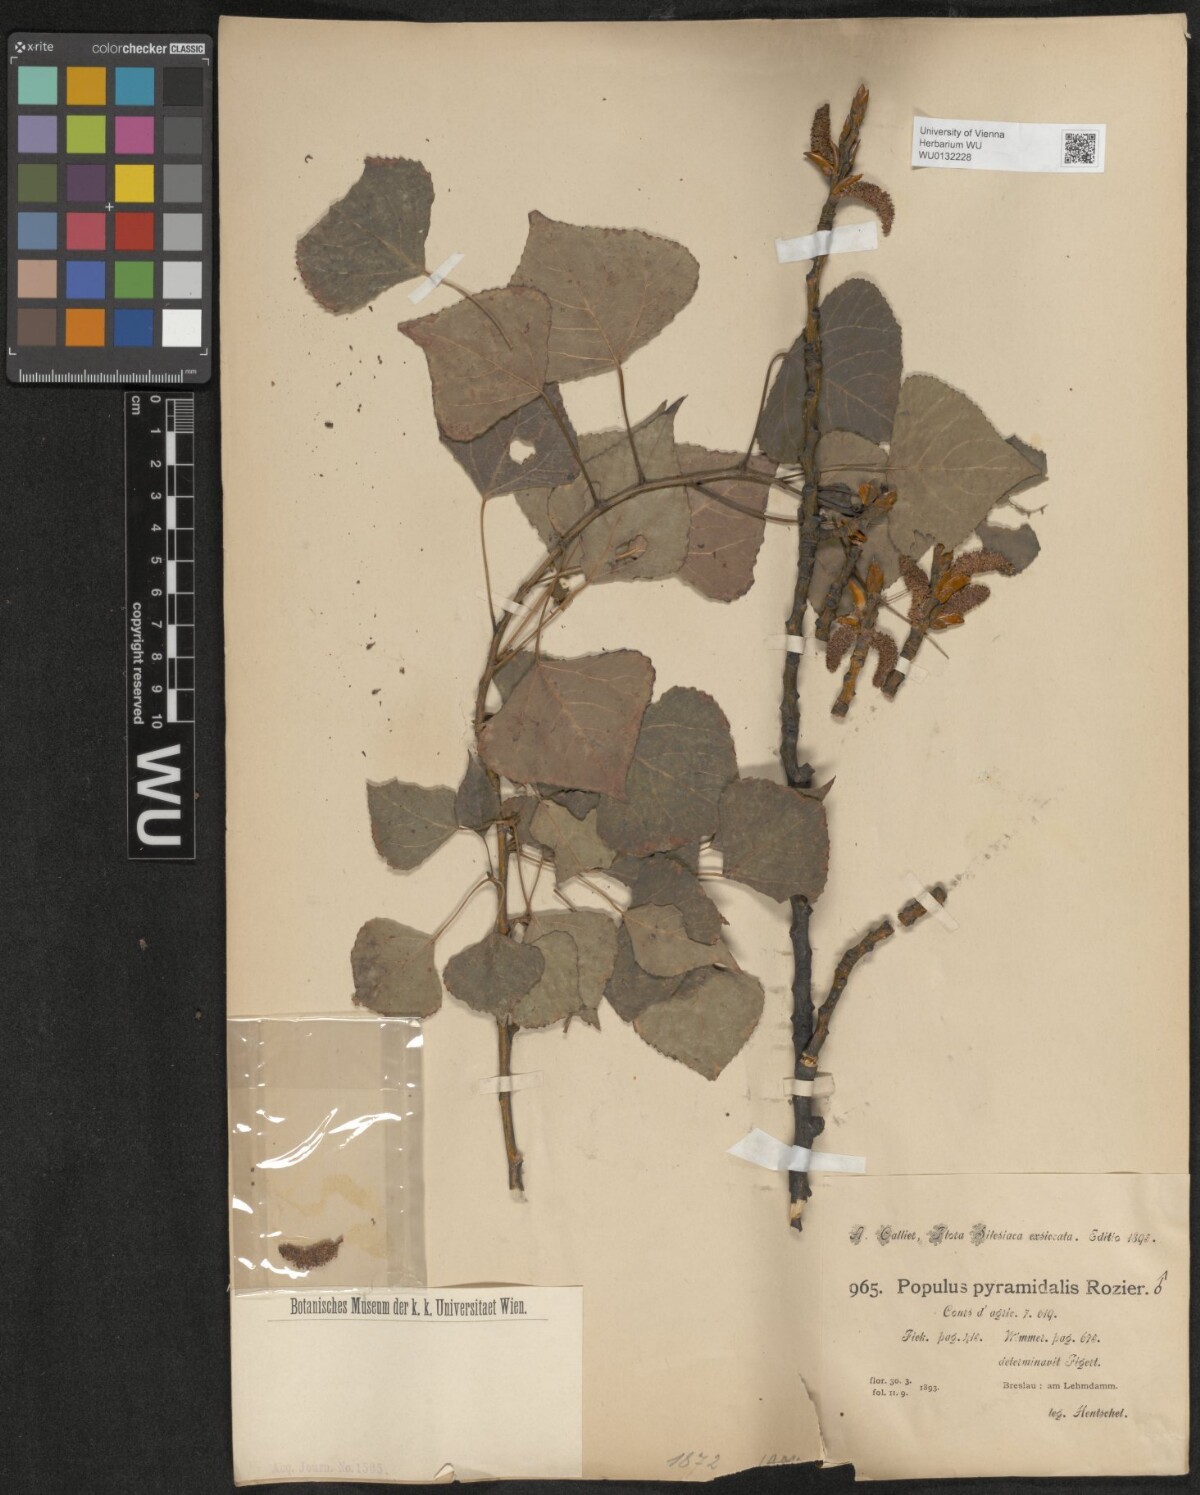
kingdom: Plantae
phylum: Tracheophyta
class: Magnoliopsida
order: Malpighiales
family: Salicaceae
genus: Populus
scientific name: Populus nigra
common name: Black poplar
